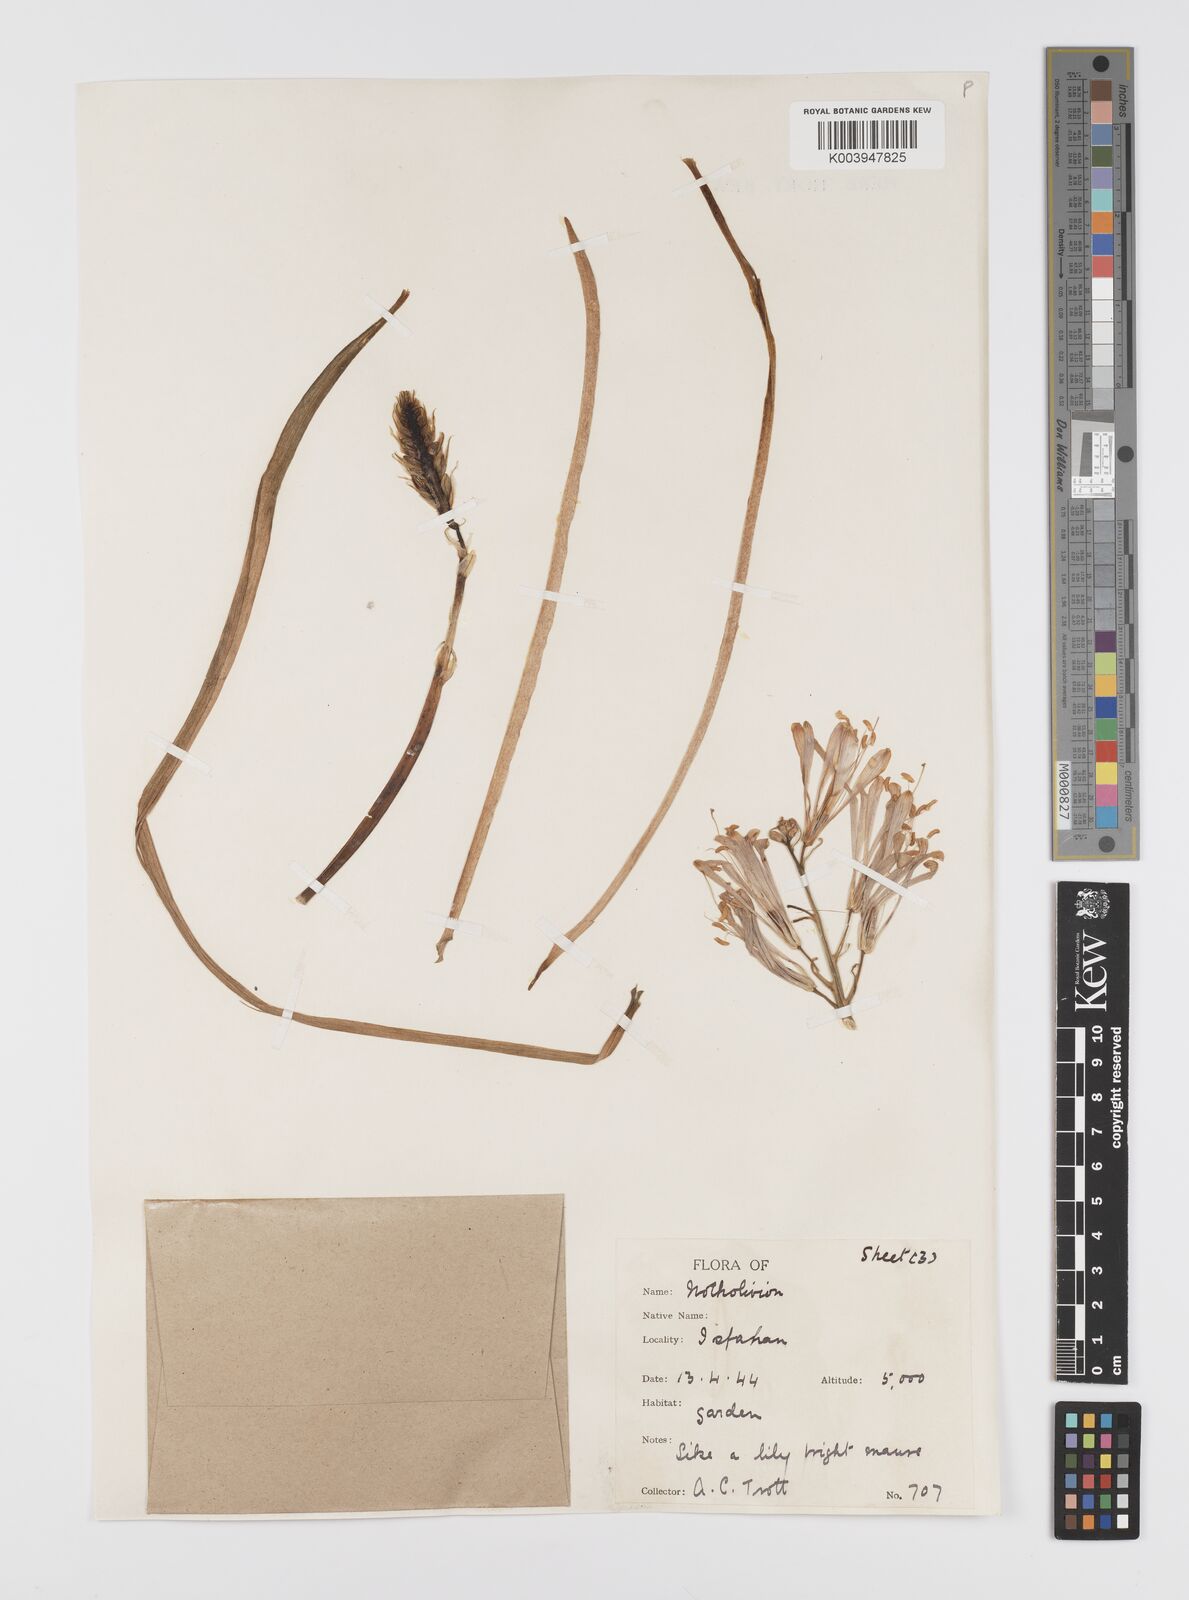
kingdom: Plantae
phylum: Tracheophyta
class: Liliopsida
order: Liliales
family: Liliaceae
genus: Notholirion
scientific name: Notholirion
